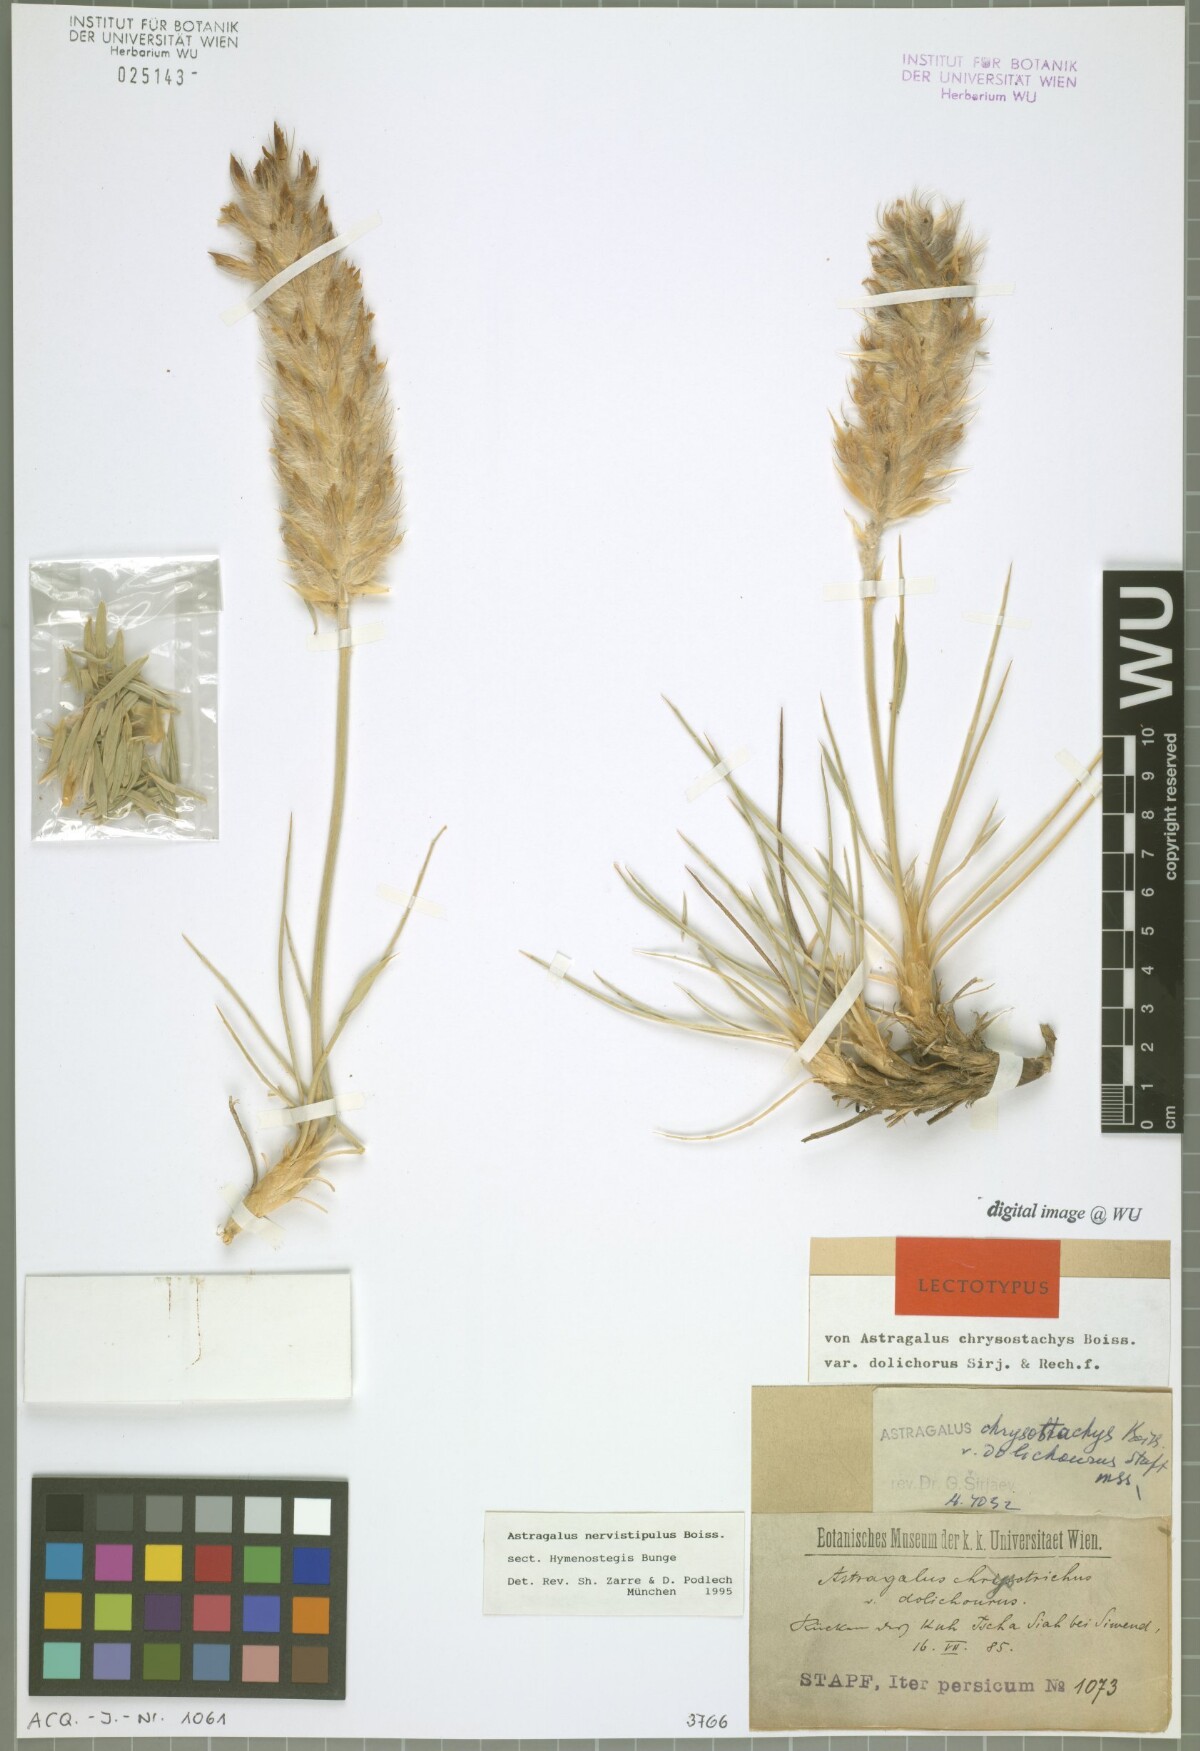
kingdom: Plantae
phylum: Tracheophyta
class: Magnoliopsida
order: Fabales
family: Fabaceae
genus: Astragalus
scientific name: Astragalus nervistipulus
